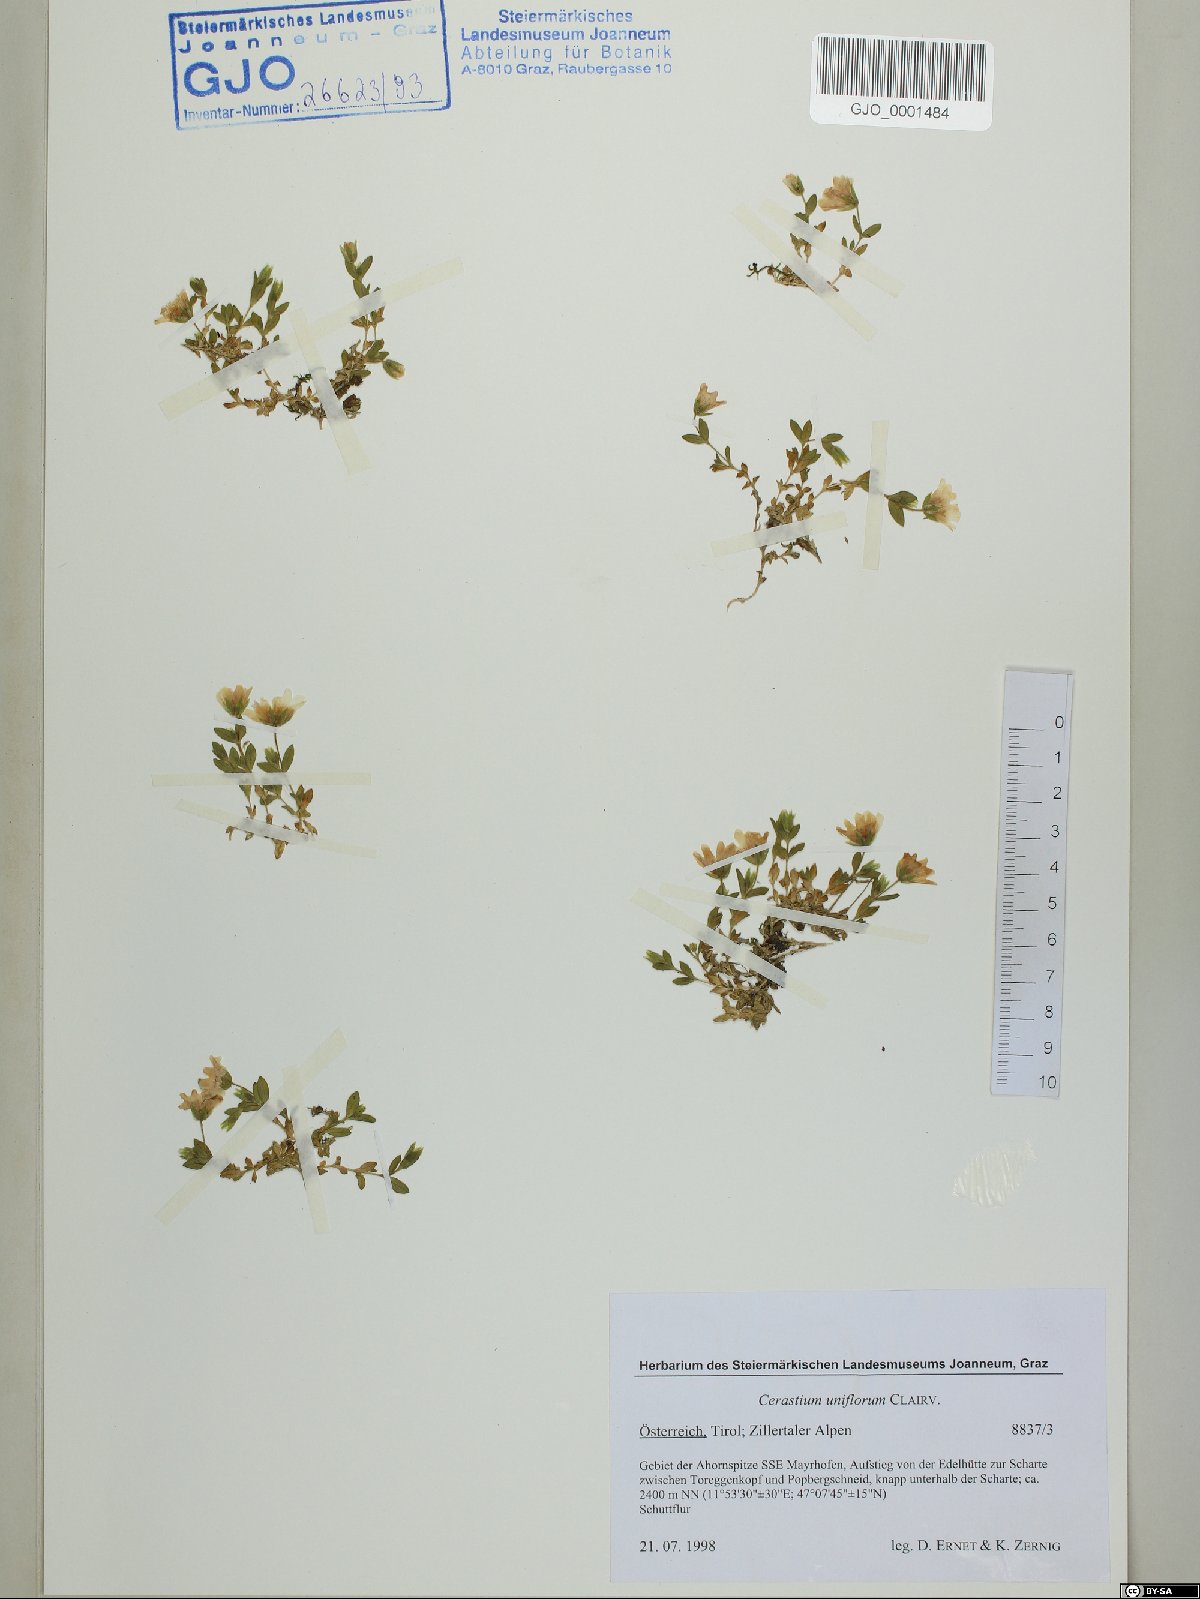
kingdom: Plantae
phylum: Tracheophyta
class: Magnoliopsida
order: Caryophyllales
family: Caryophyllaceae
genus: Cerastium
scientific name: Cerastium uniflorum
